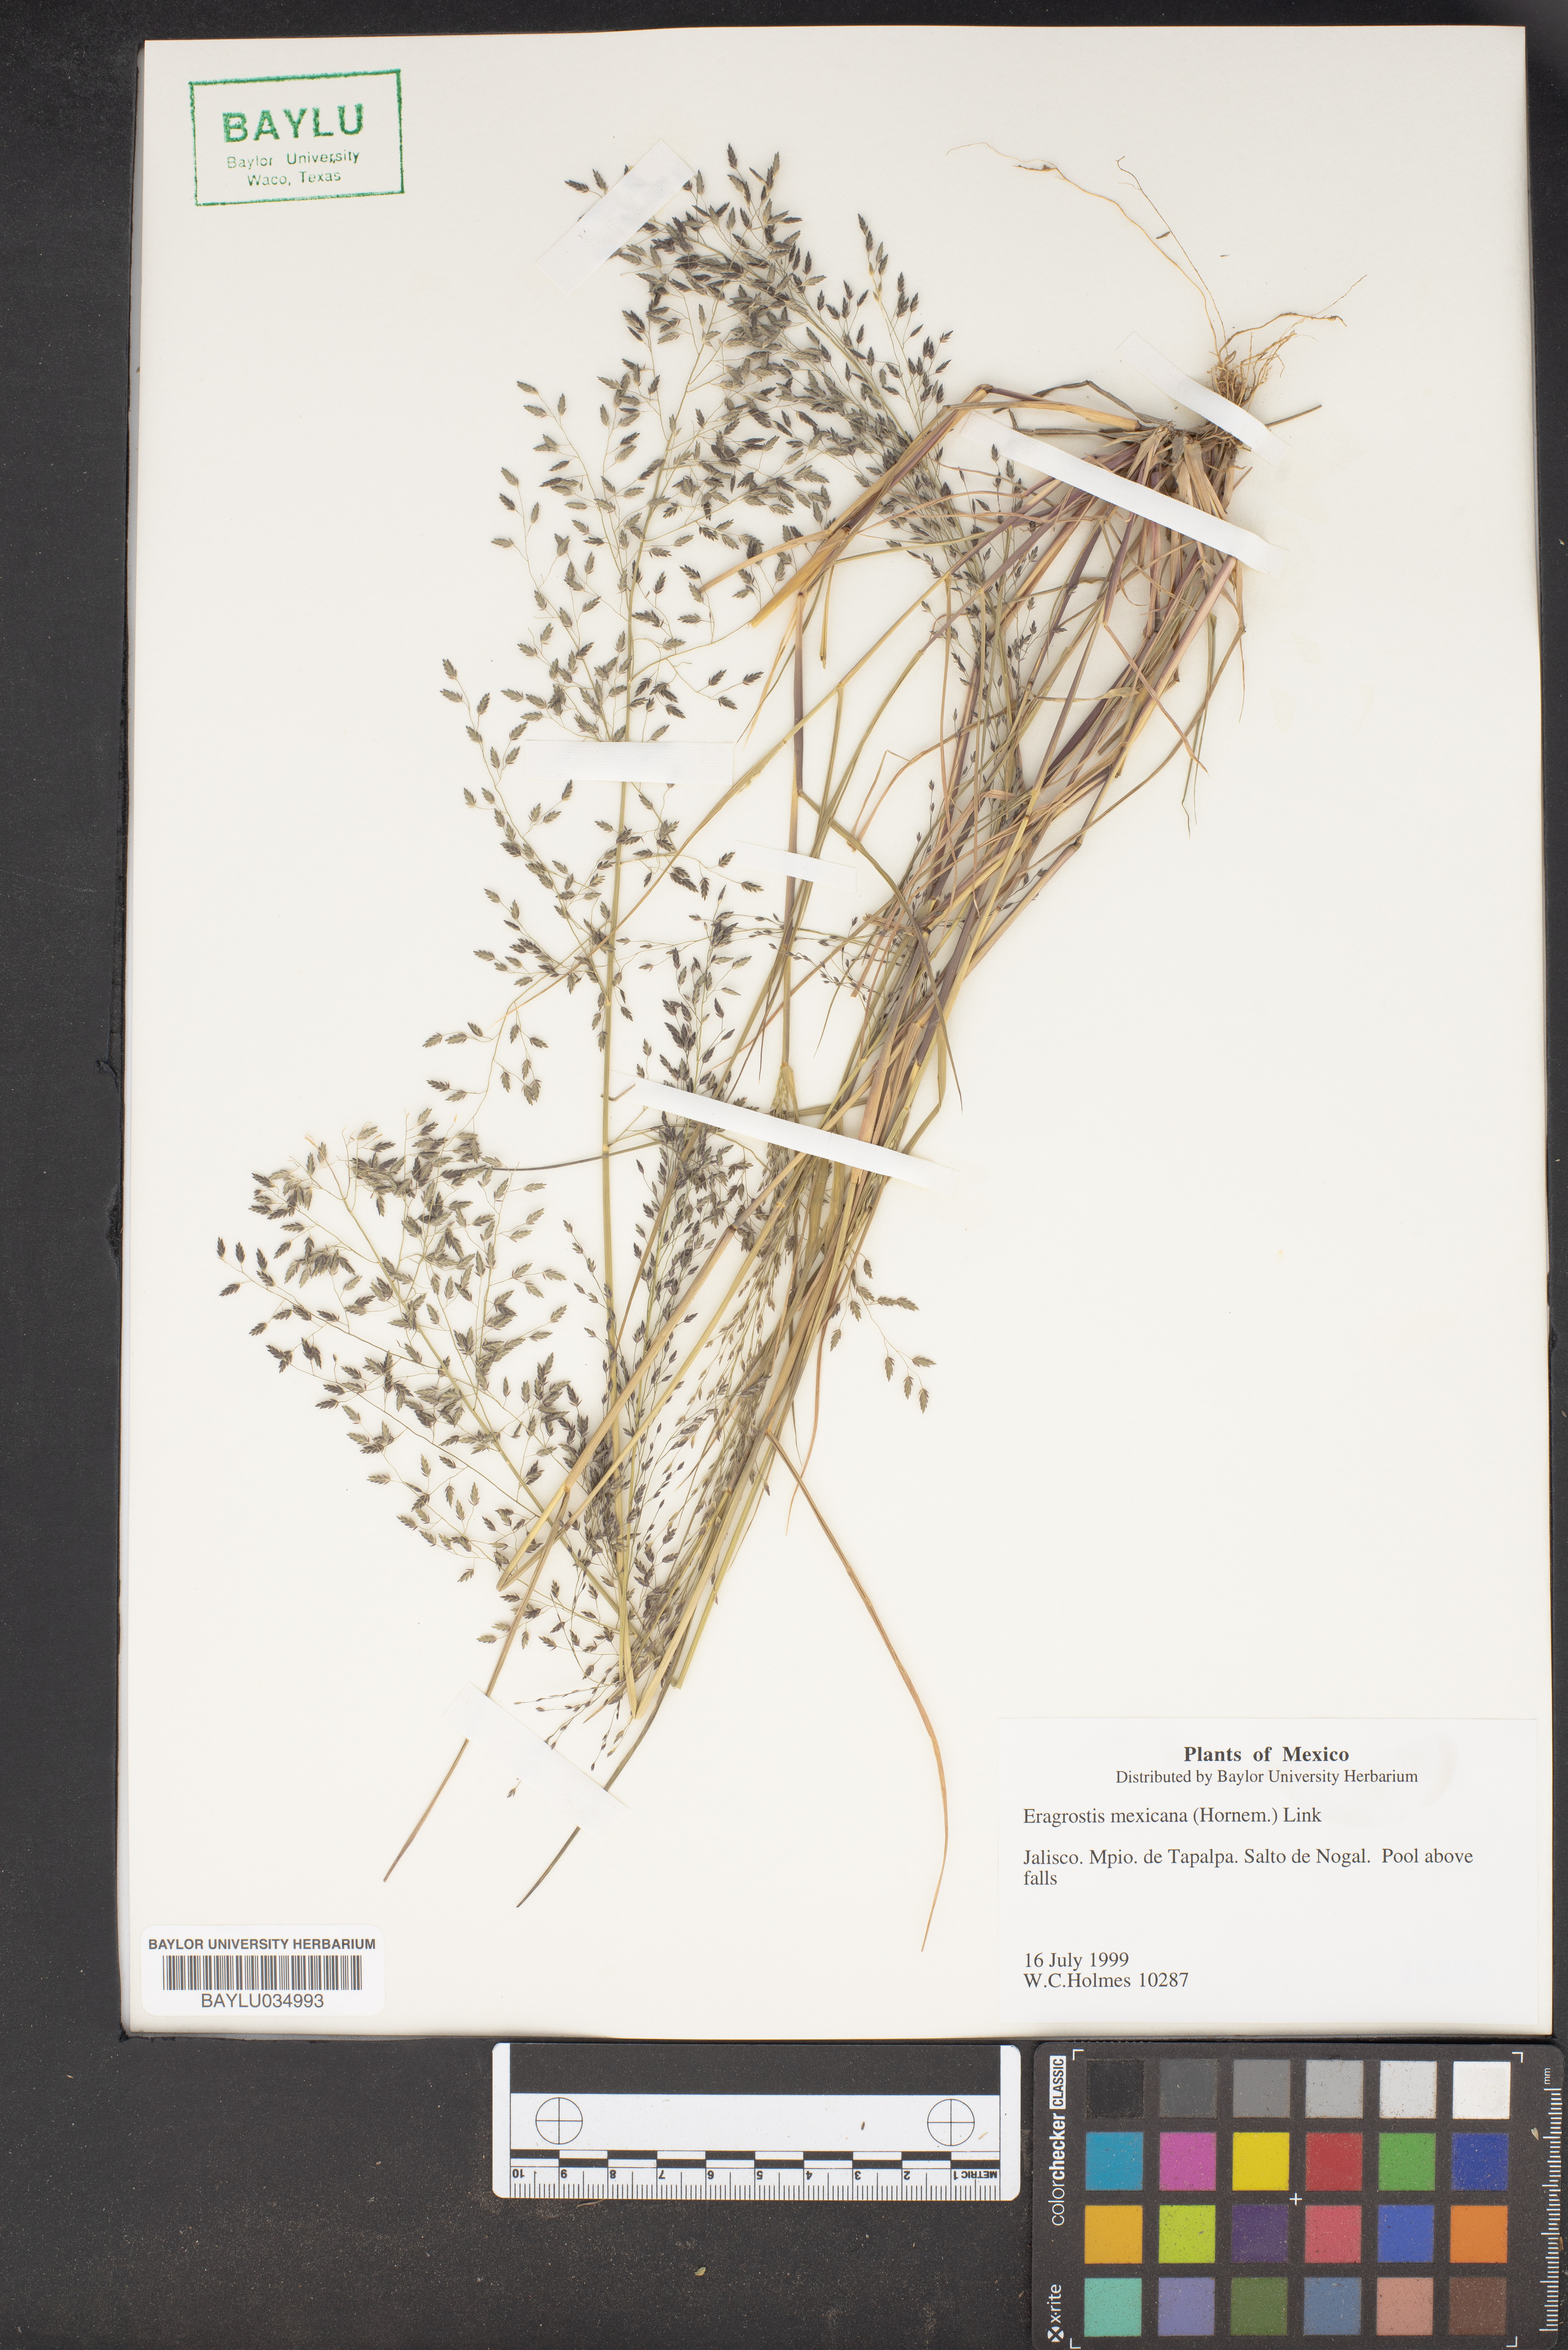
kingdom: Plantae
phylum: Tracheophyta
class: Liliopsida
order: Poales
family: Poaceae
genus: Eragrostis
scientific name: Eragrostis mexicana
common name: Mexican love grass
